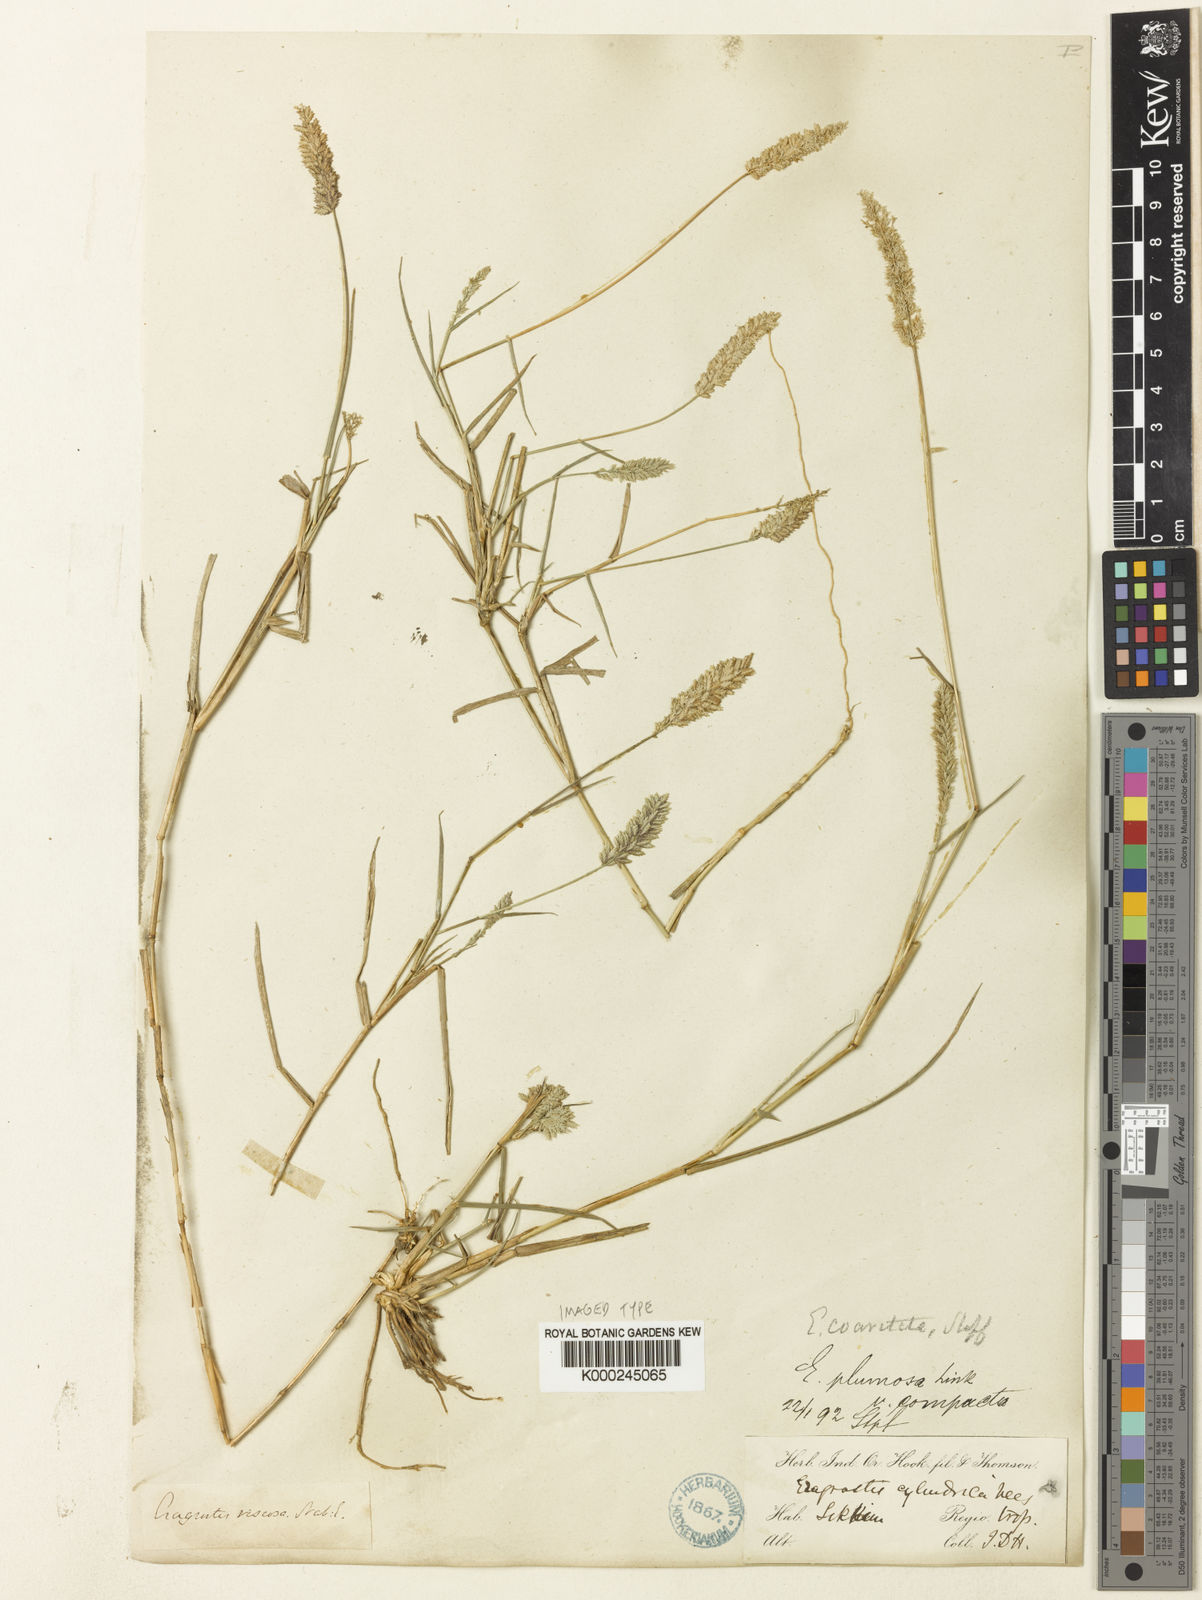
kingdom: Plantae
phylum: Tracheophyta
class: Liliopsida
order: Poales
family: Poaceae
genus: Eragrostis
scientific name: Eragrostis coarctata
